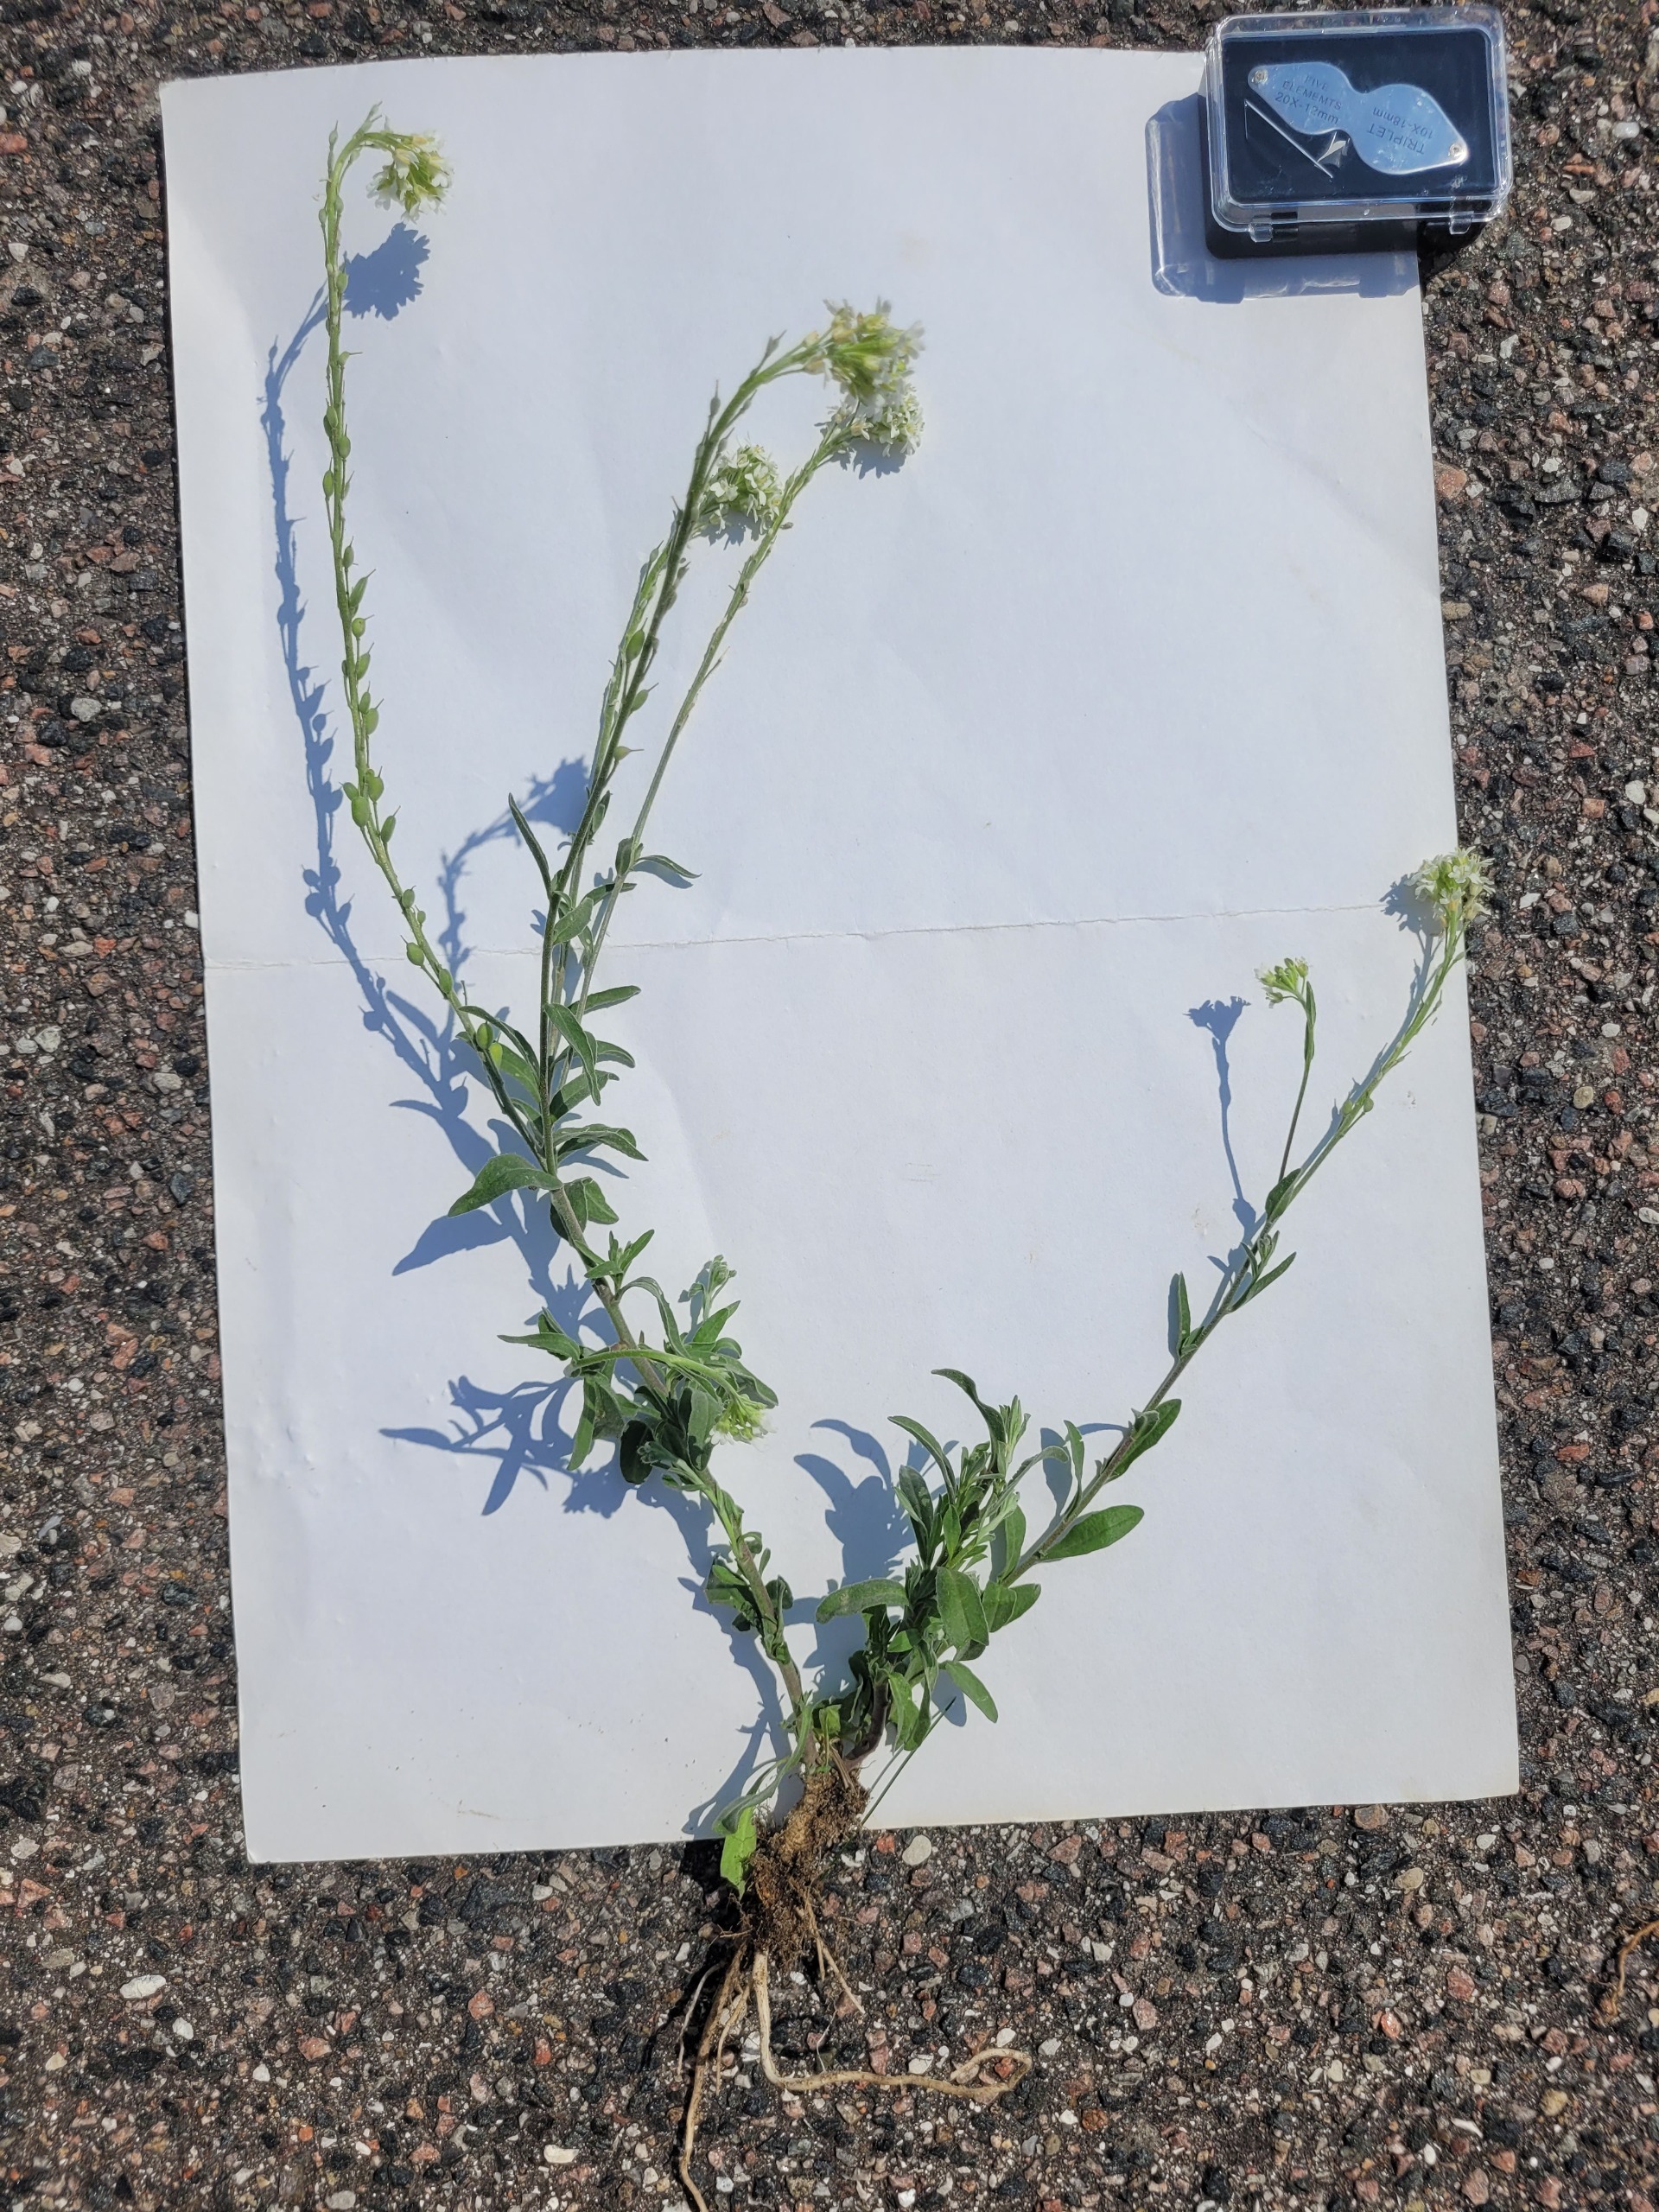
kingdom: Plantae
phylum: Tracheophyta
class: Magnoliopsida
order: Brassicales
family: Brassicaceae
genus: Berteroa
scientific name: Berteroa incana
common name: Kløvplade
